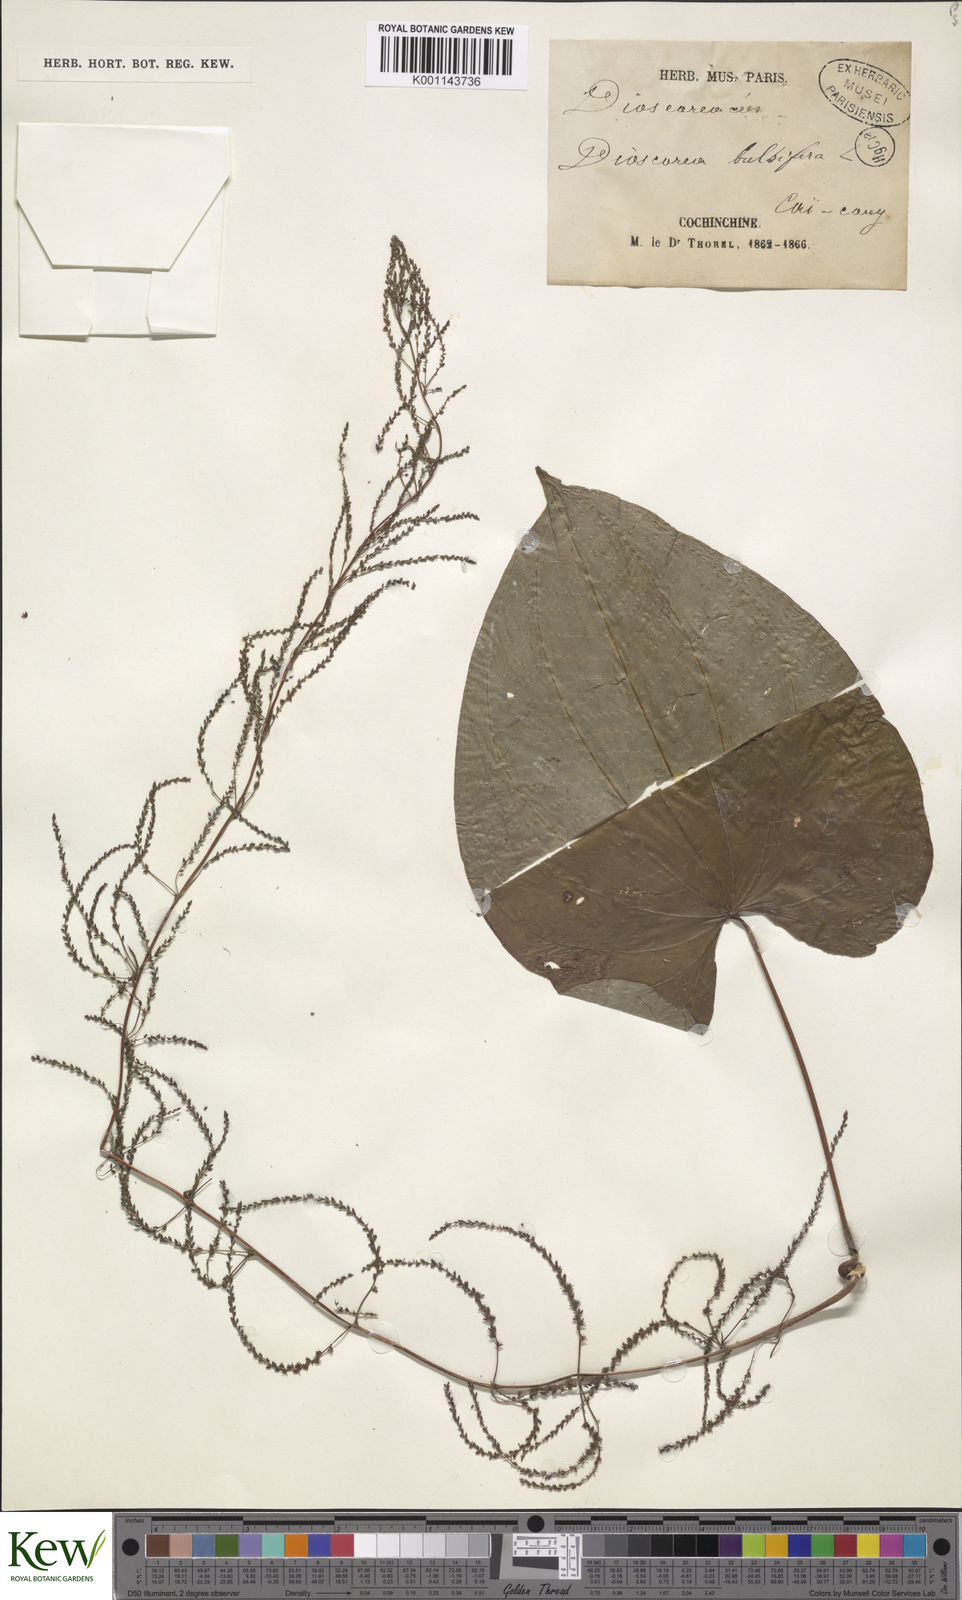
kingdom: Plantae
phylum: Tracheophyta
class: Liliopsida
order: Dioscoreales
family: Dioscoreaceae
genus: Dioscorea
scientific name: Dioscorea bulbifera
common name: Air yam
